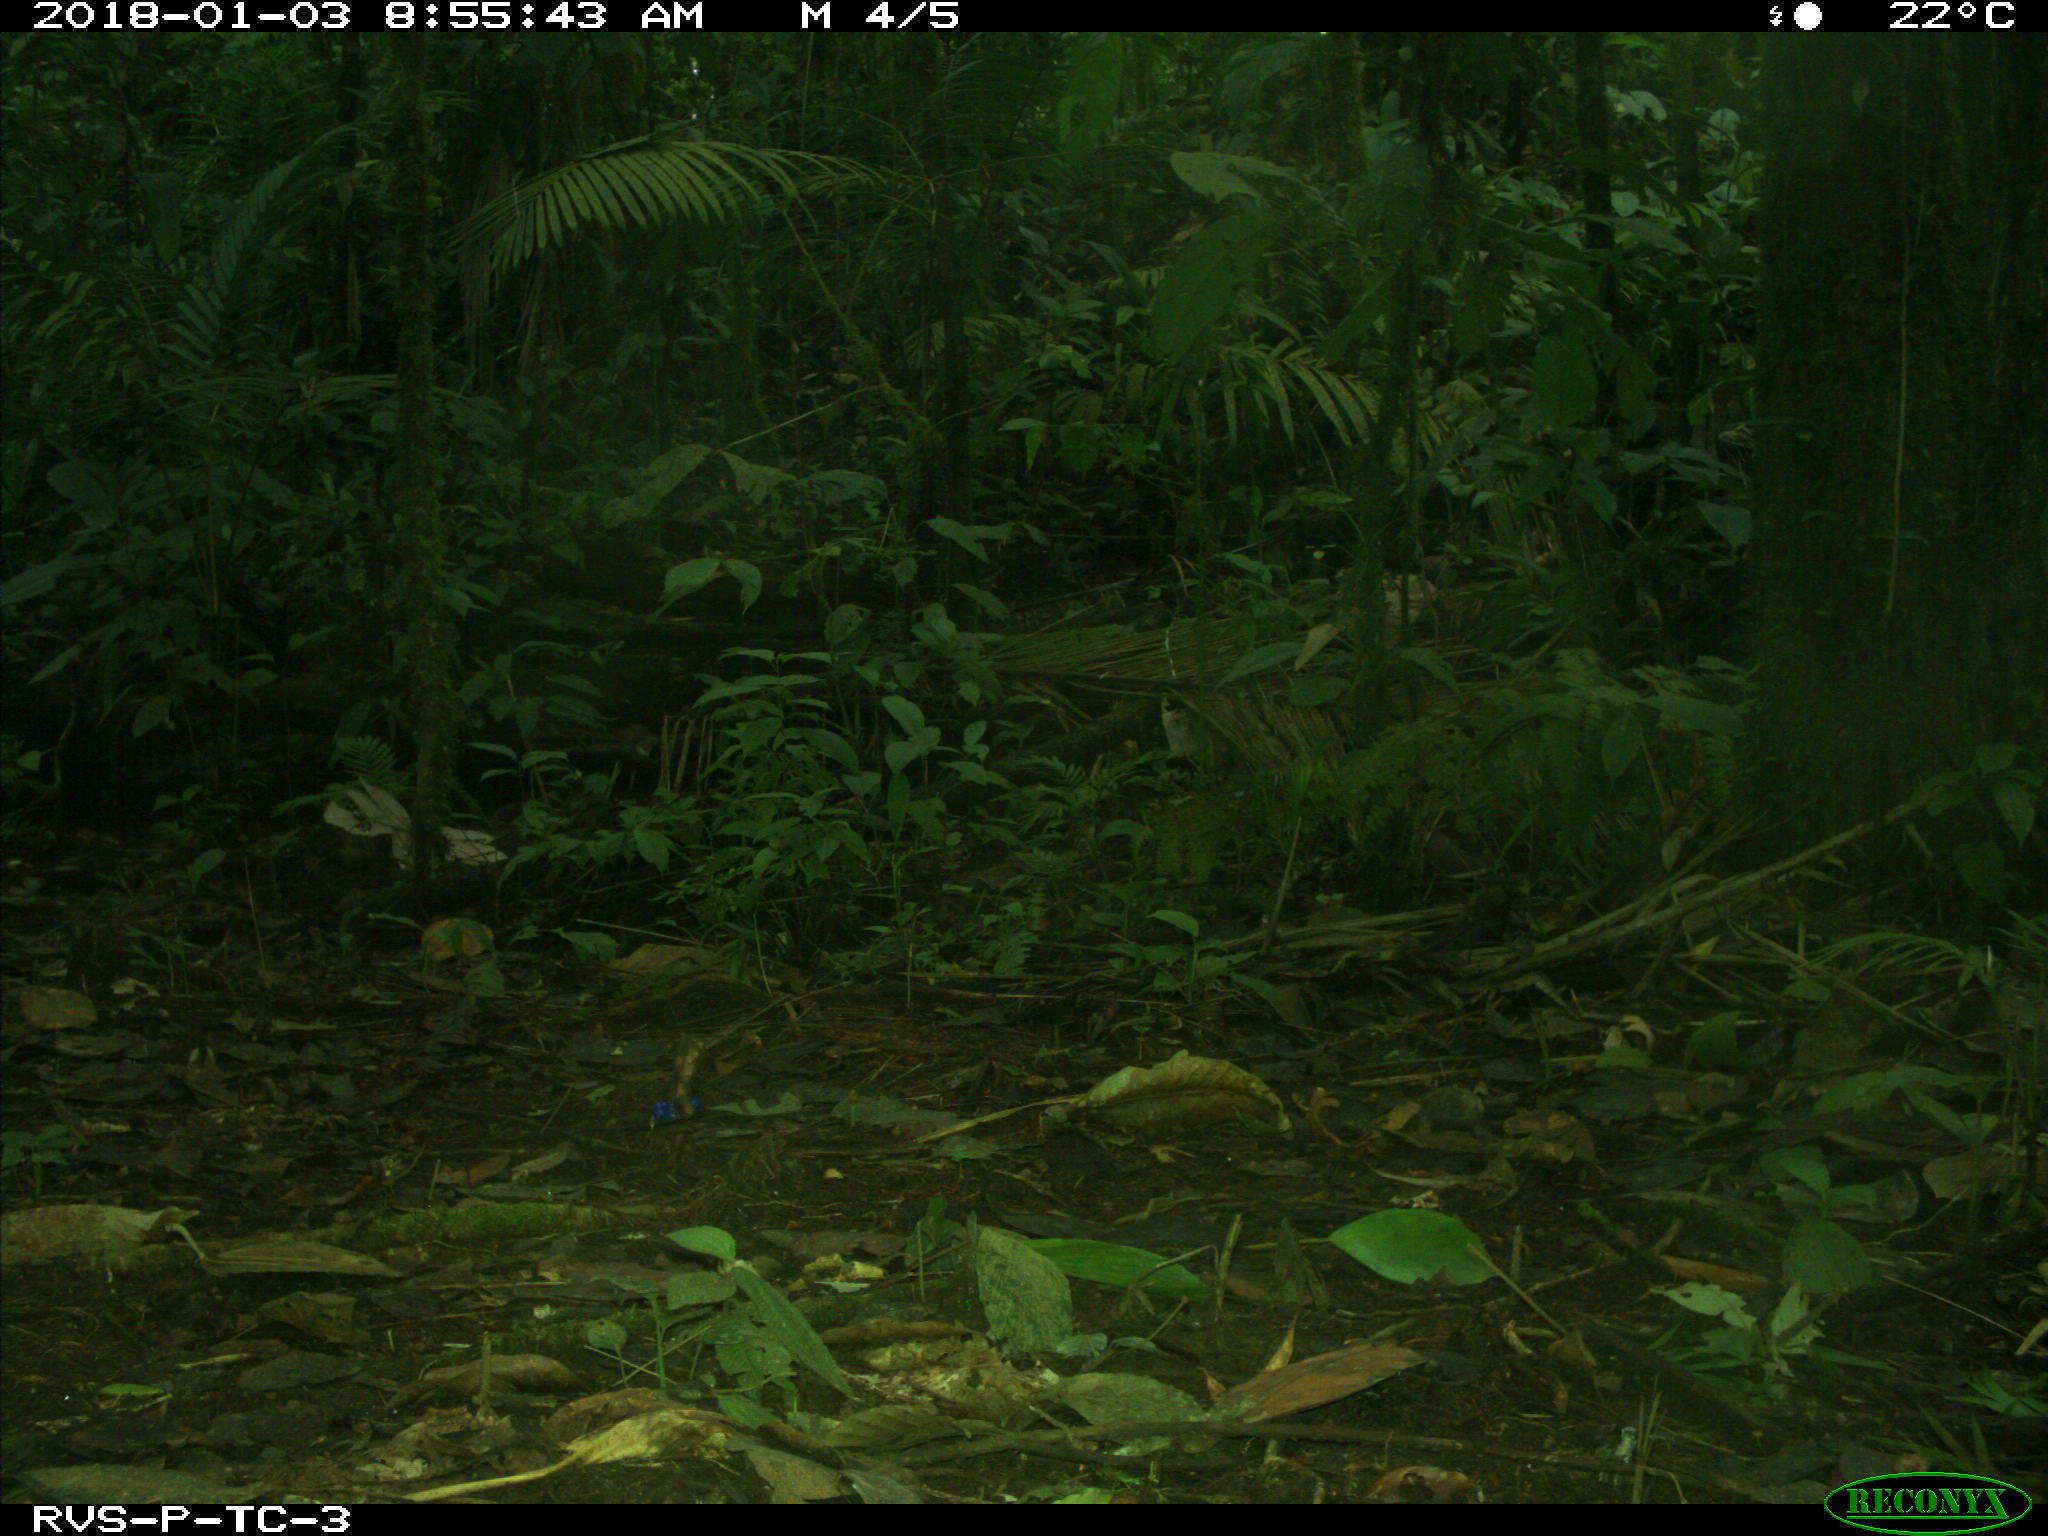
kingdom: Animalia
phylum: Chordata
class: Mammalia
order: Rodentia
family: Dasyproctidae
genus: Dasyprocta
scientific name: Dasyprocta punctata
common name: Central american agouti
